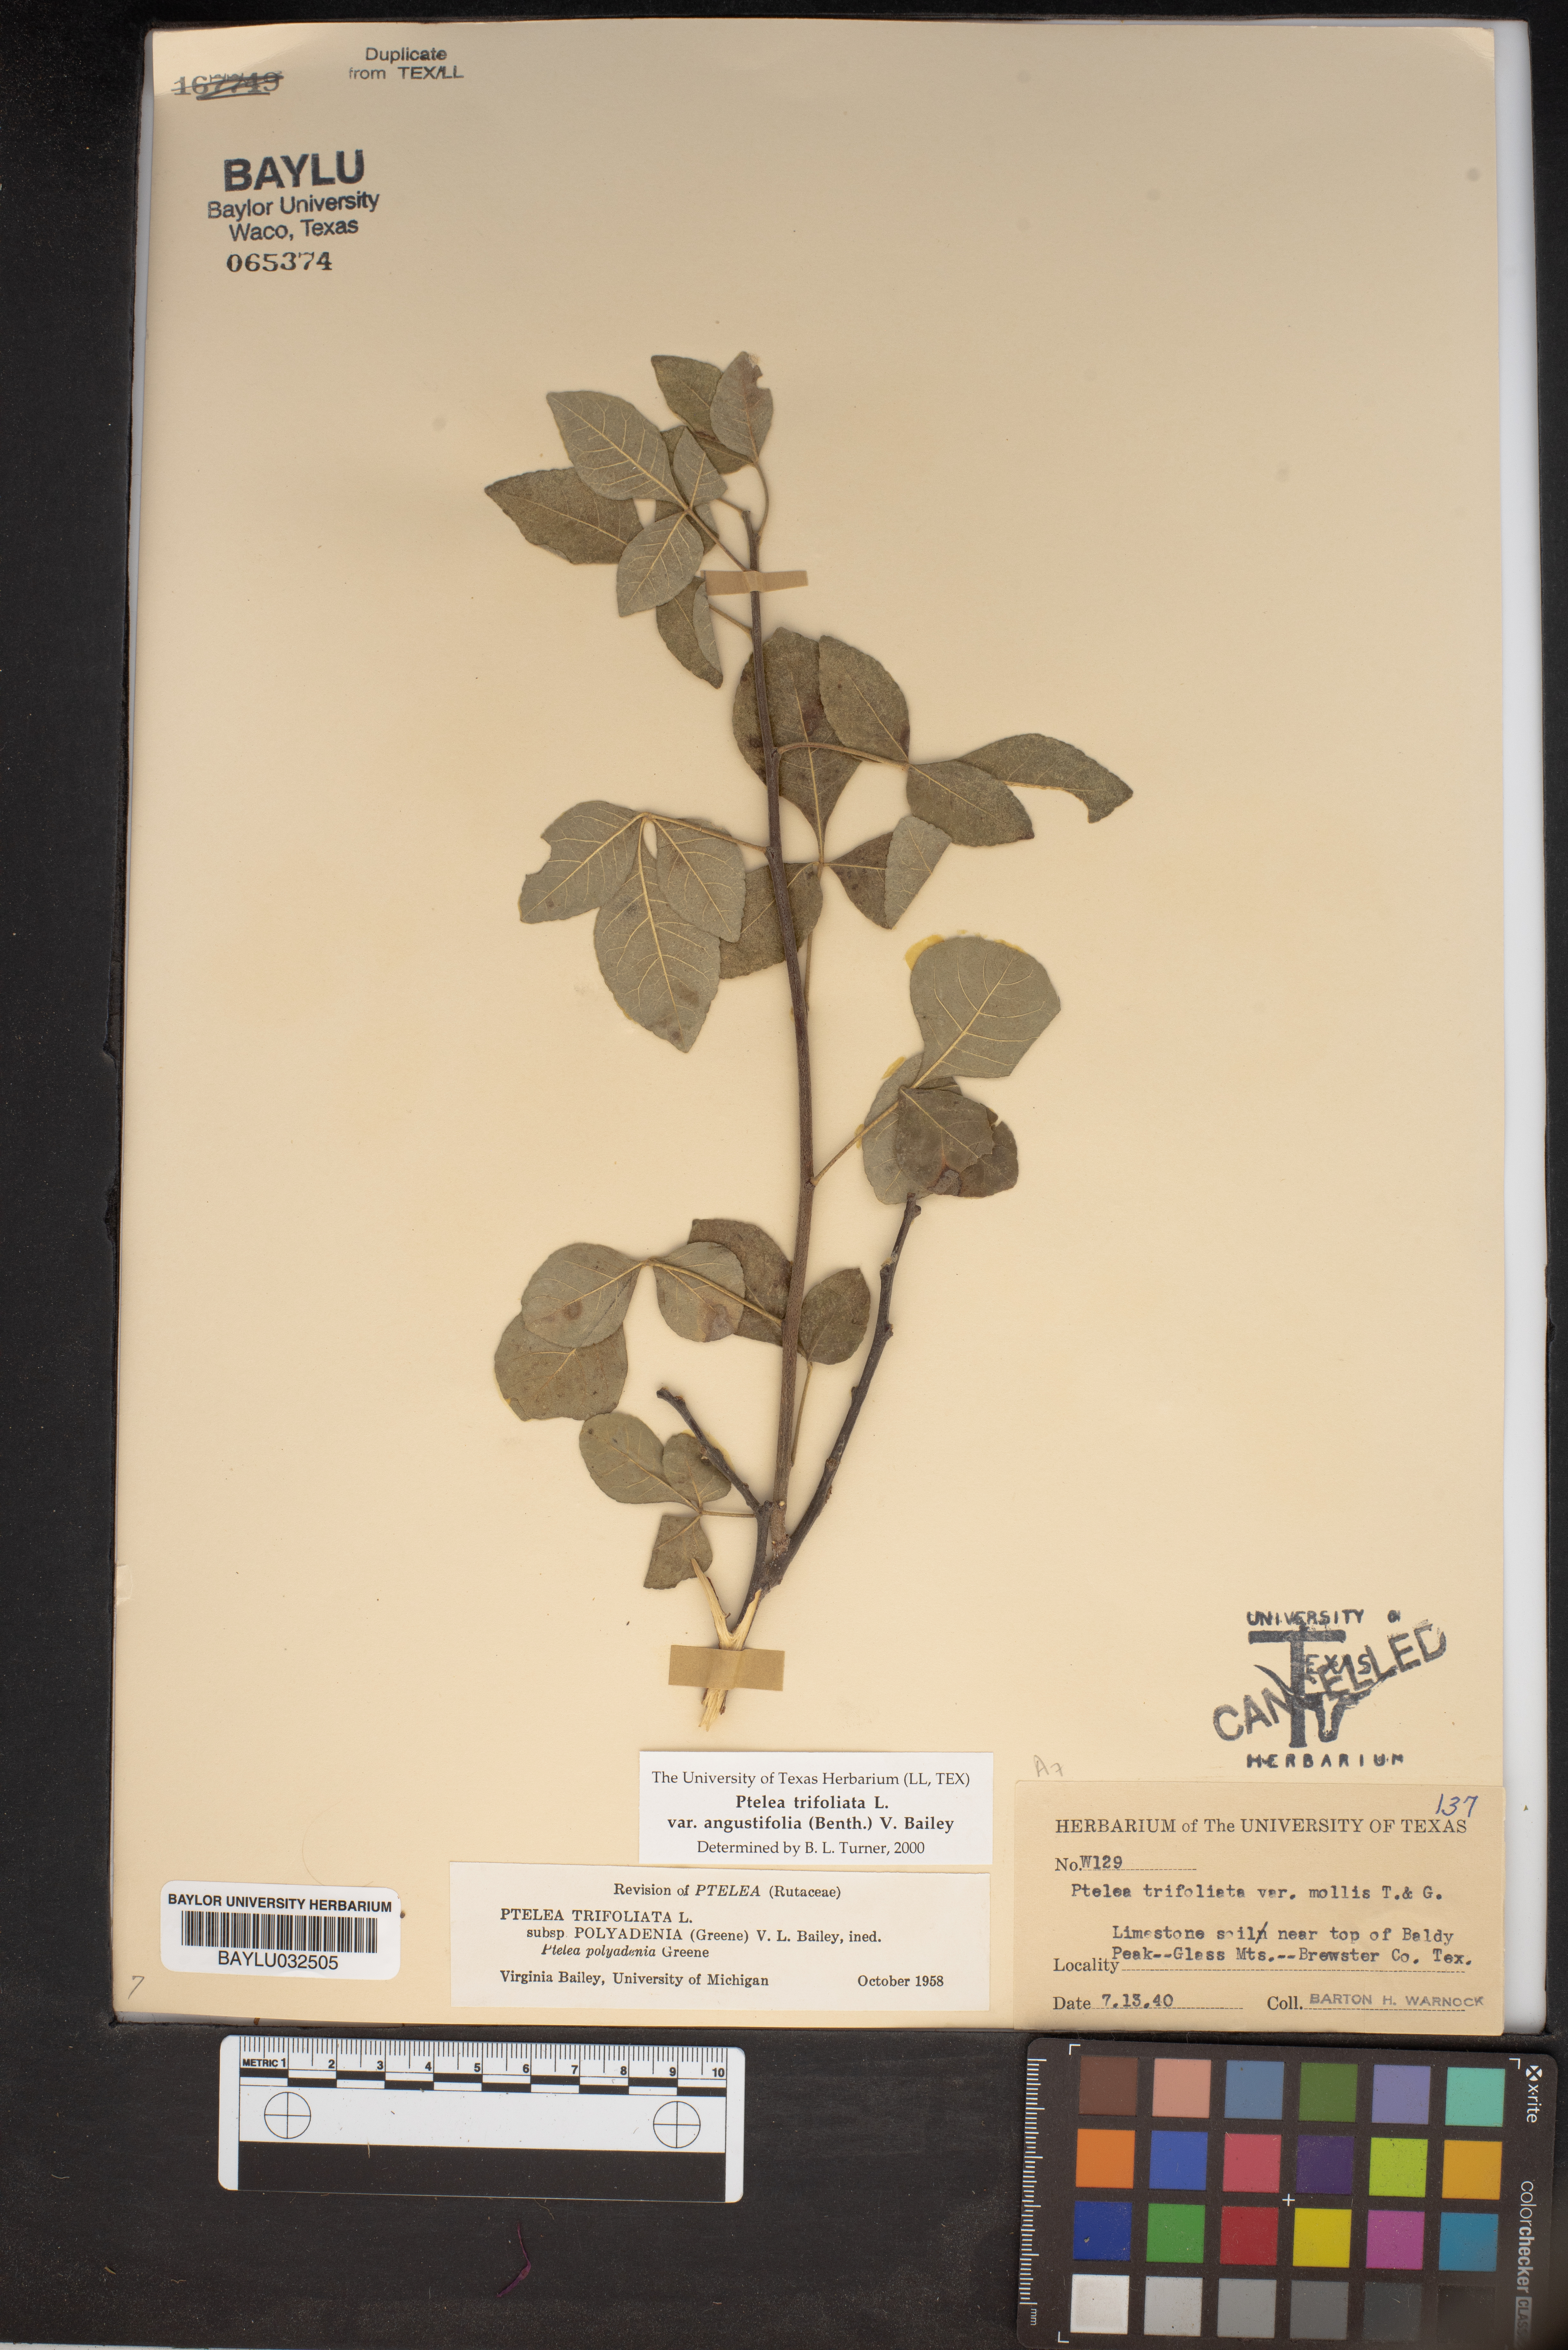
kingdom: Plantae
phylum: Tracheophyta
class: Magnoliopsida
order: Sapindales
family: Rutaceae
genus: Ptelea
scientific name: Ptelea trifoliata
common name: Common hop-tree
